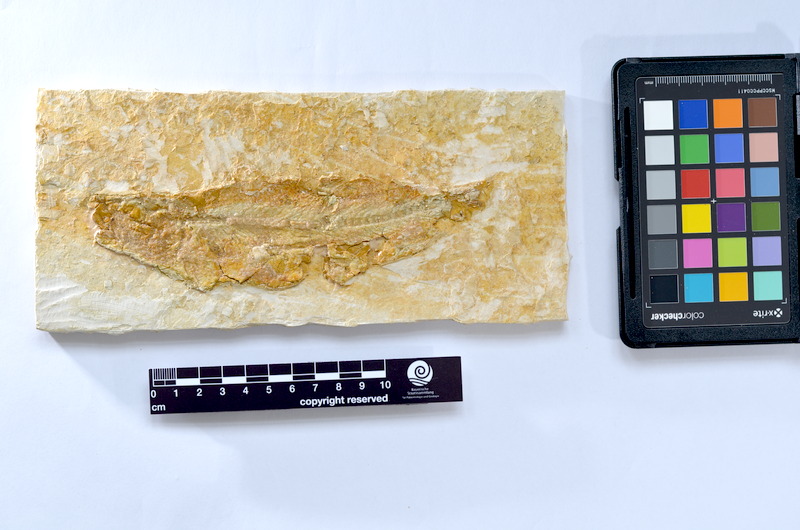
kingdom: Animalia
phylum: Chordata
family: Ascalaboidae
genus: Tharsis
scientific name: Tharsis dubius
